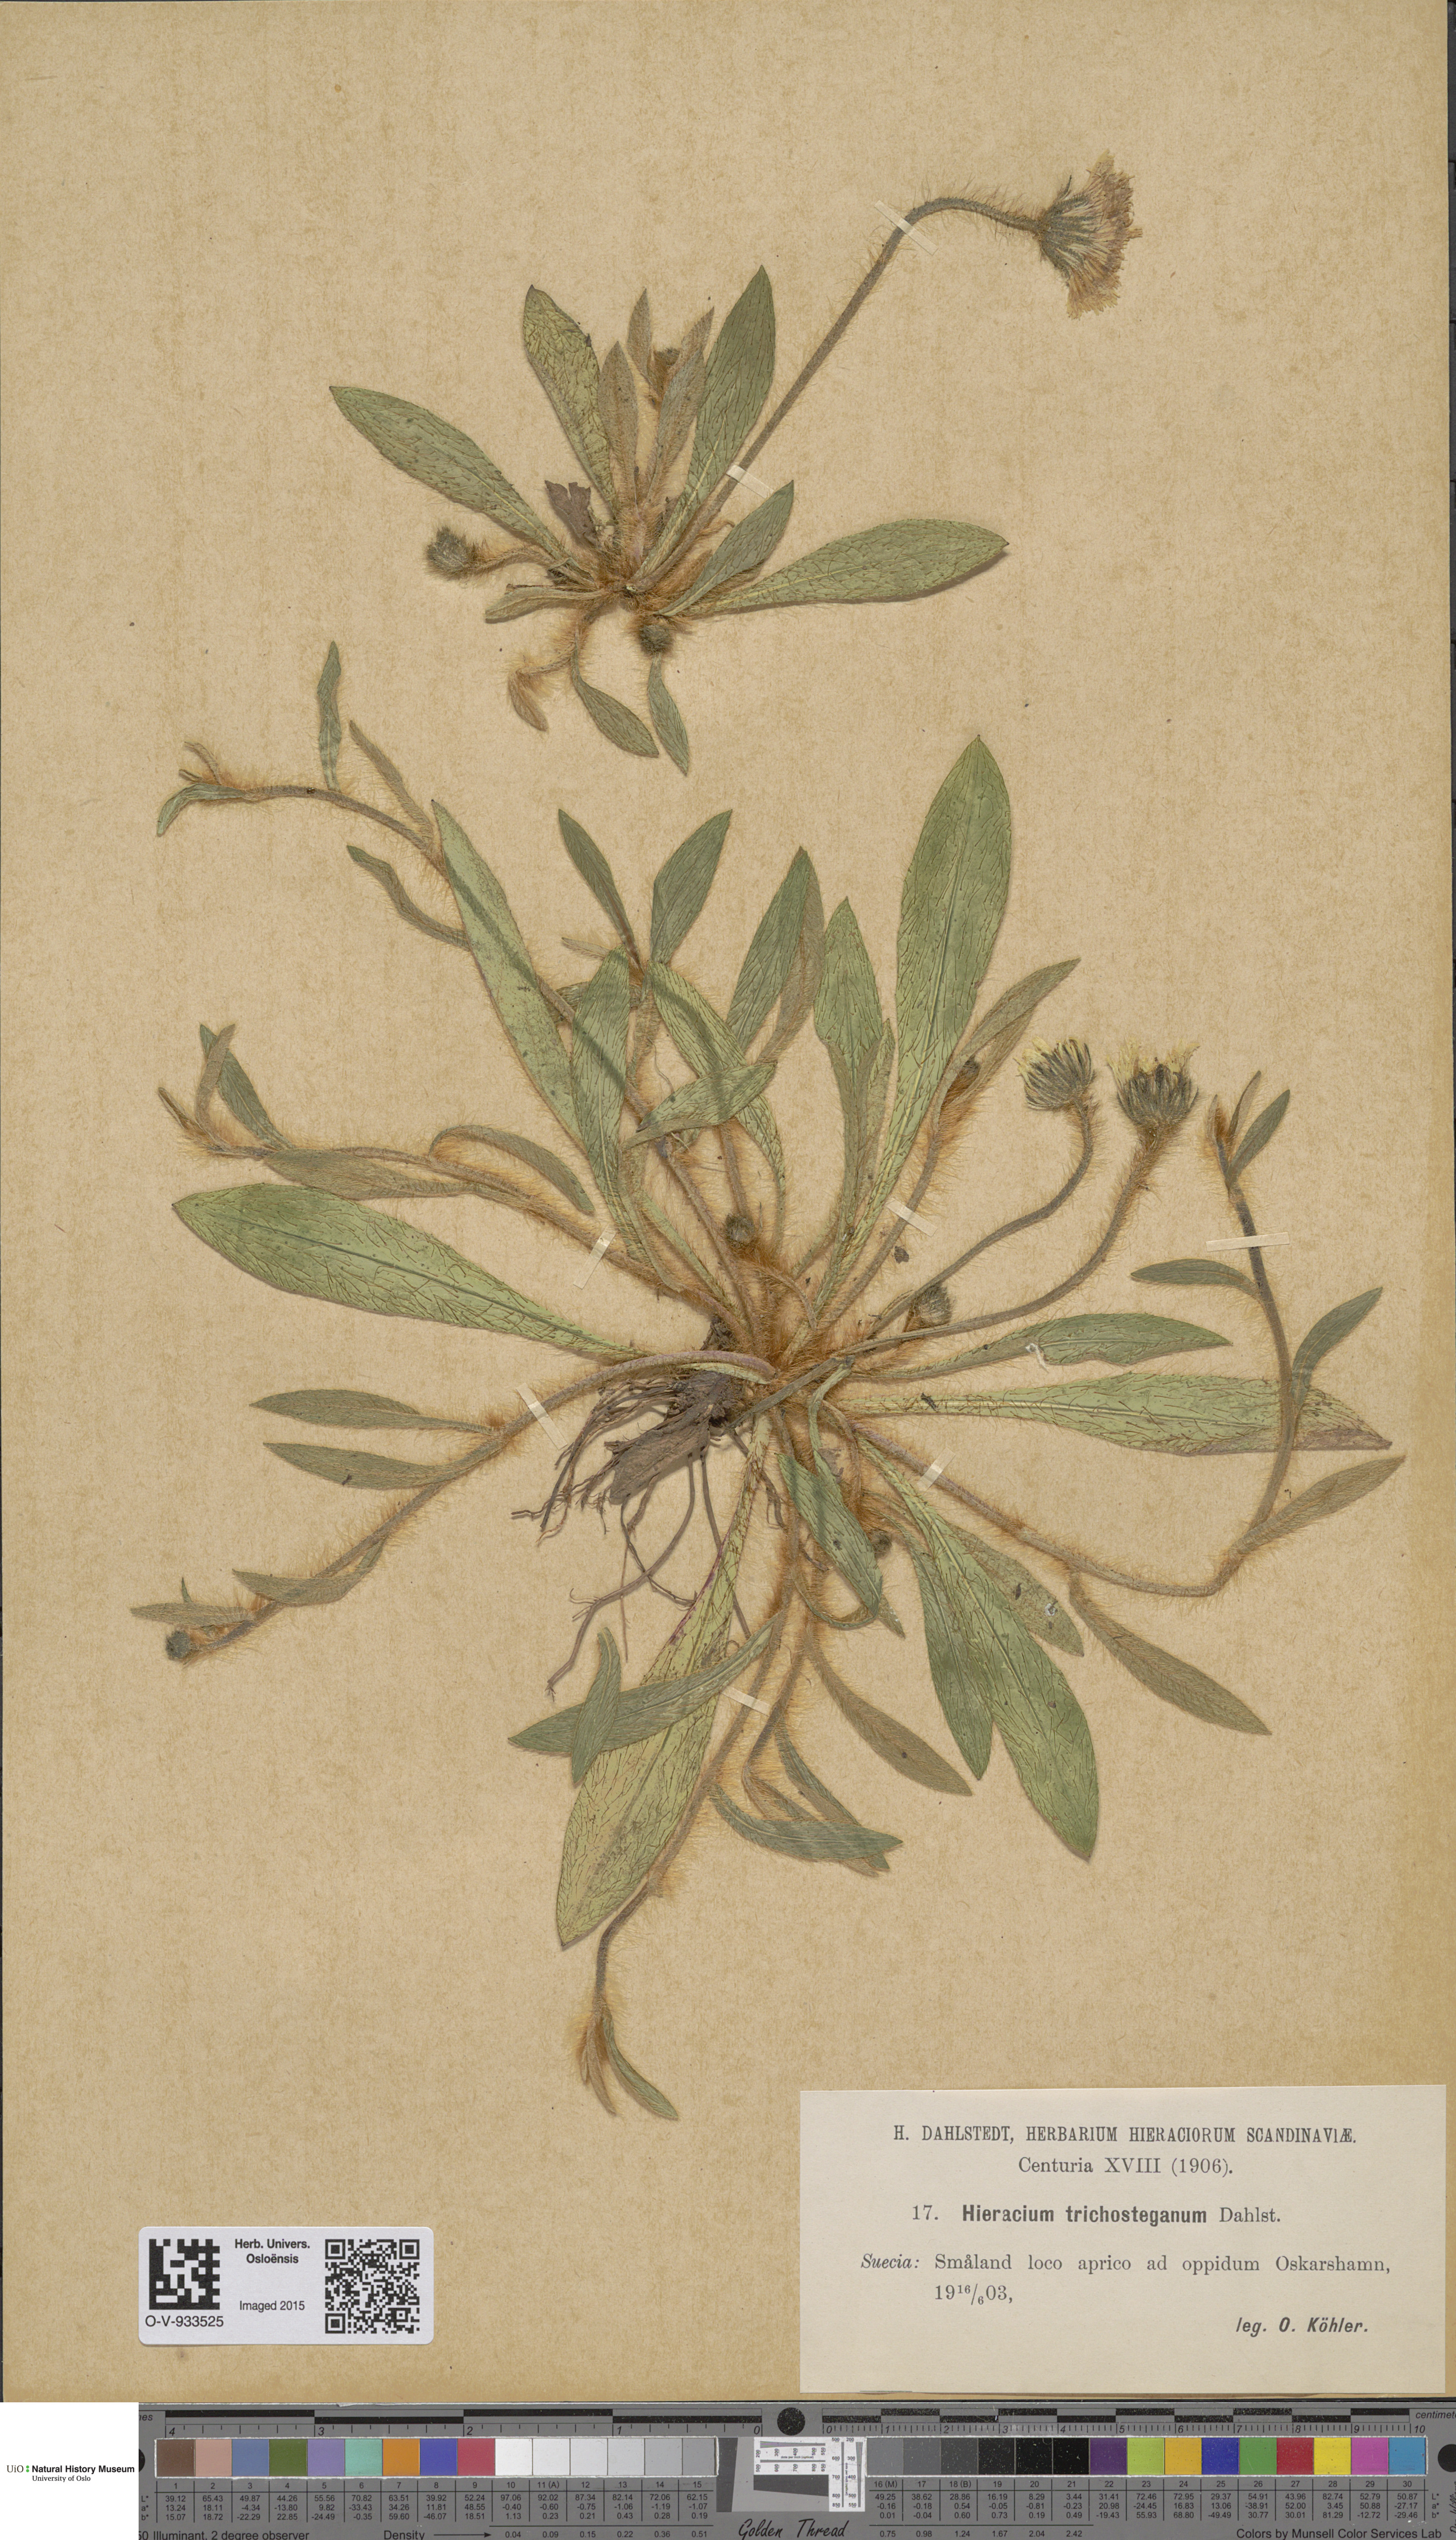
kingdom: Plantae
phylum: Tracheophyta
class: Magnoliopsida
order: Asterales
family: Asteraceae
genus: Pilosella
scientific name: Pilosella officinarum
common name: Mouse-ear hawkweed
